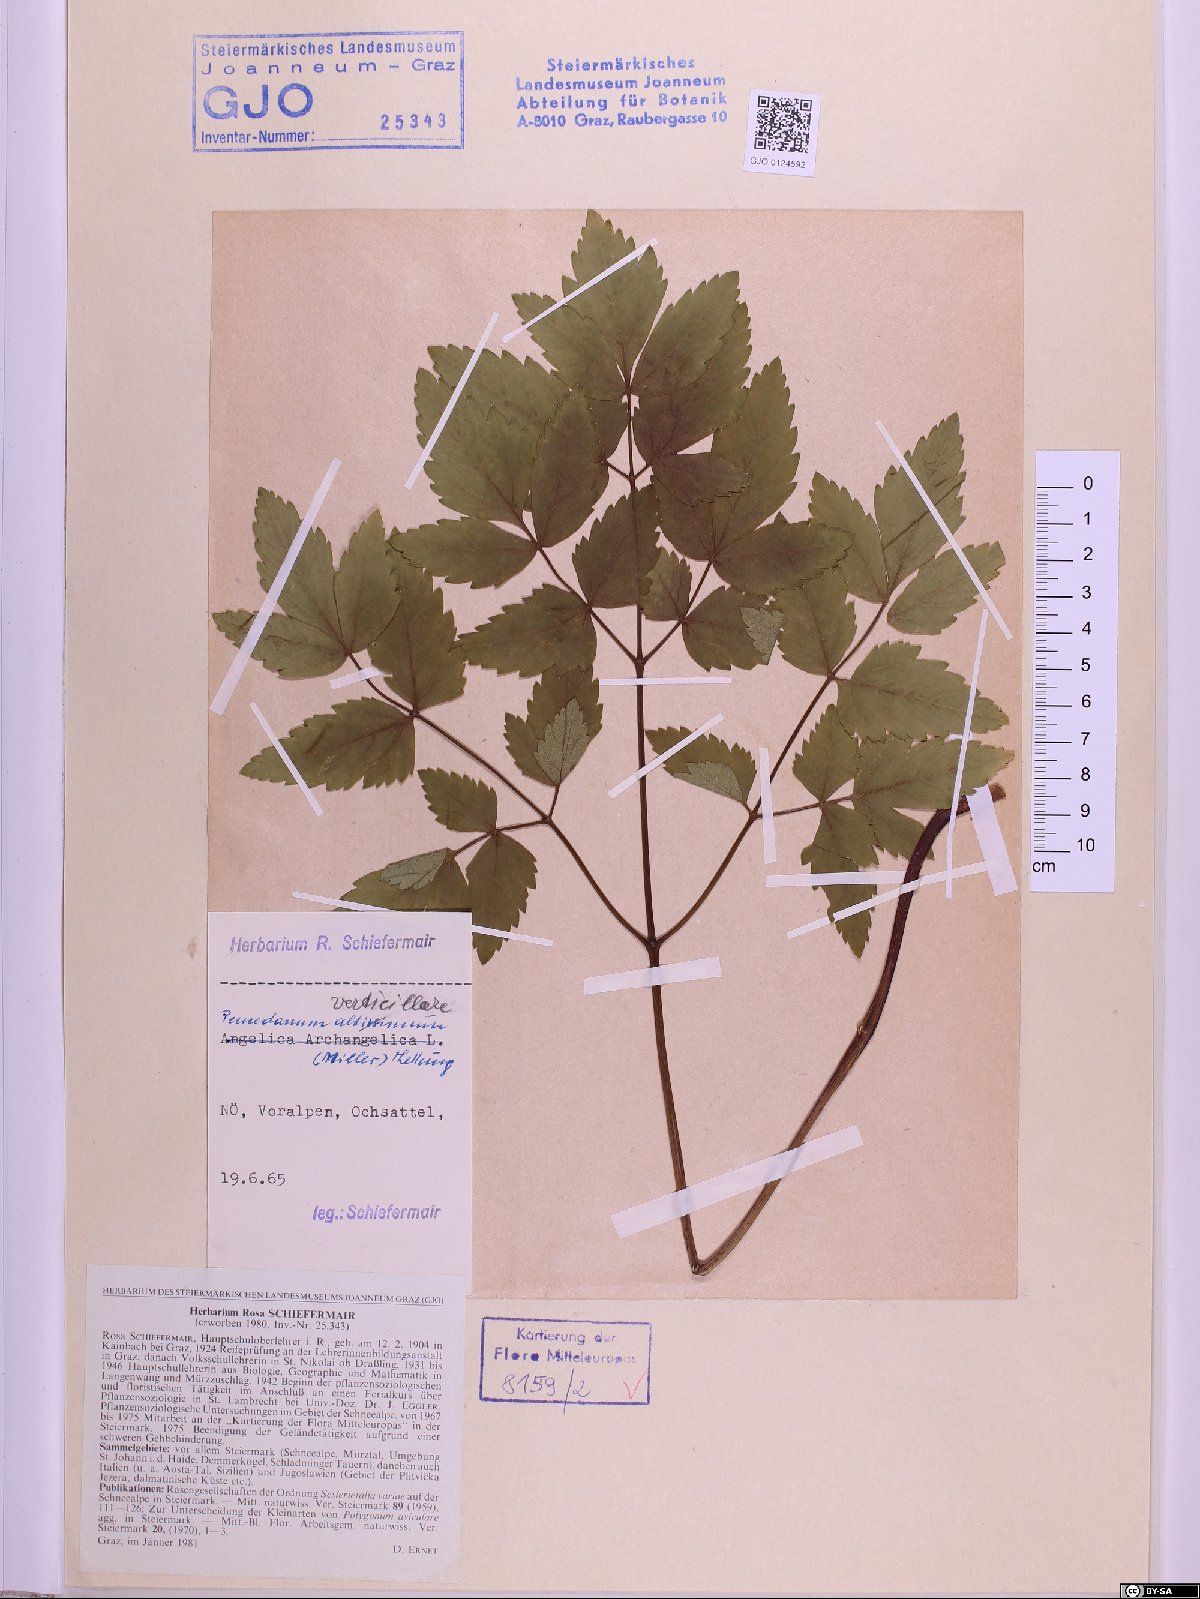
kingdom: Plantae
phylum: Tracheophyta
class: Magnoliopsida
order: Apiales
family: Apiaceae
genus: Tommasinia
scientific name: Tommasinia altissima
